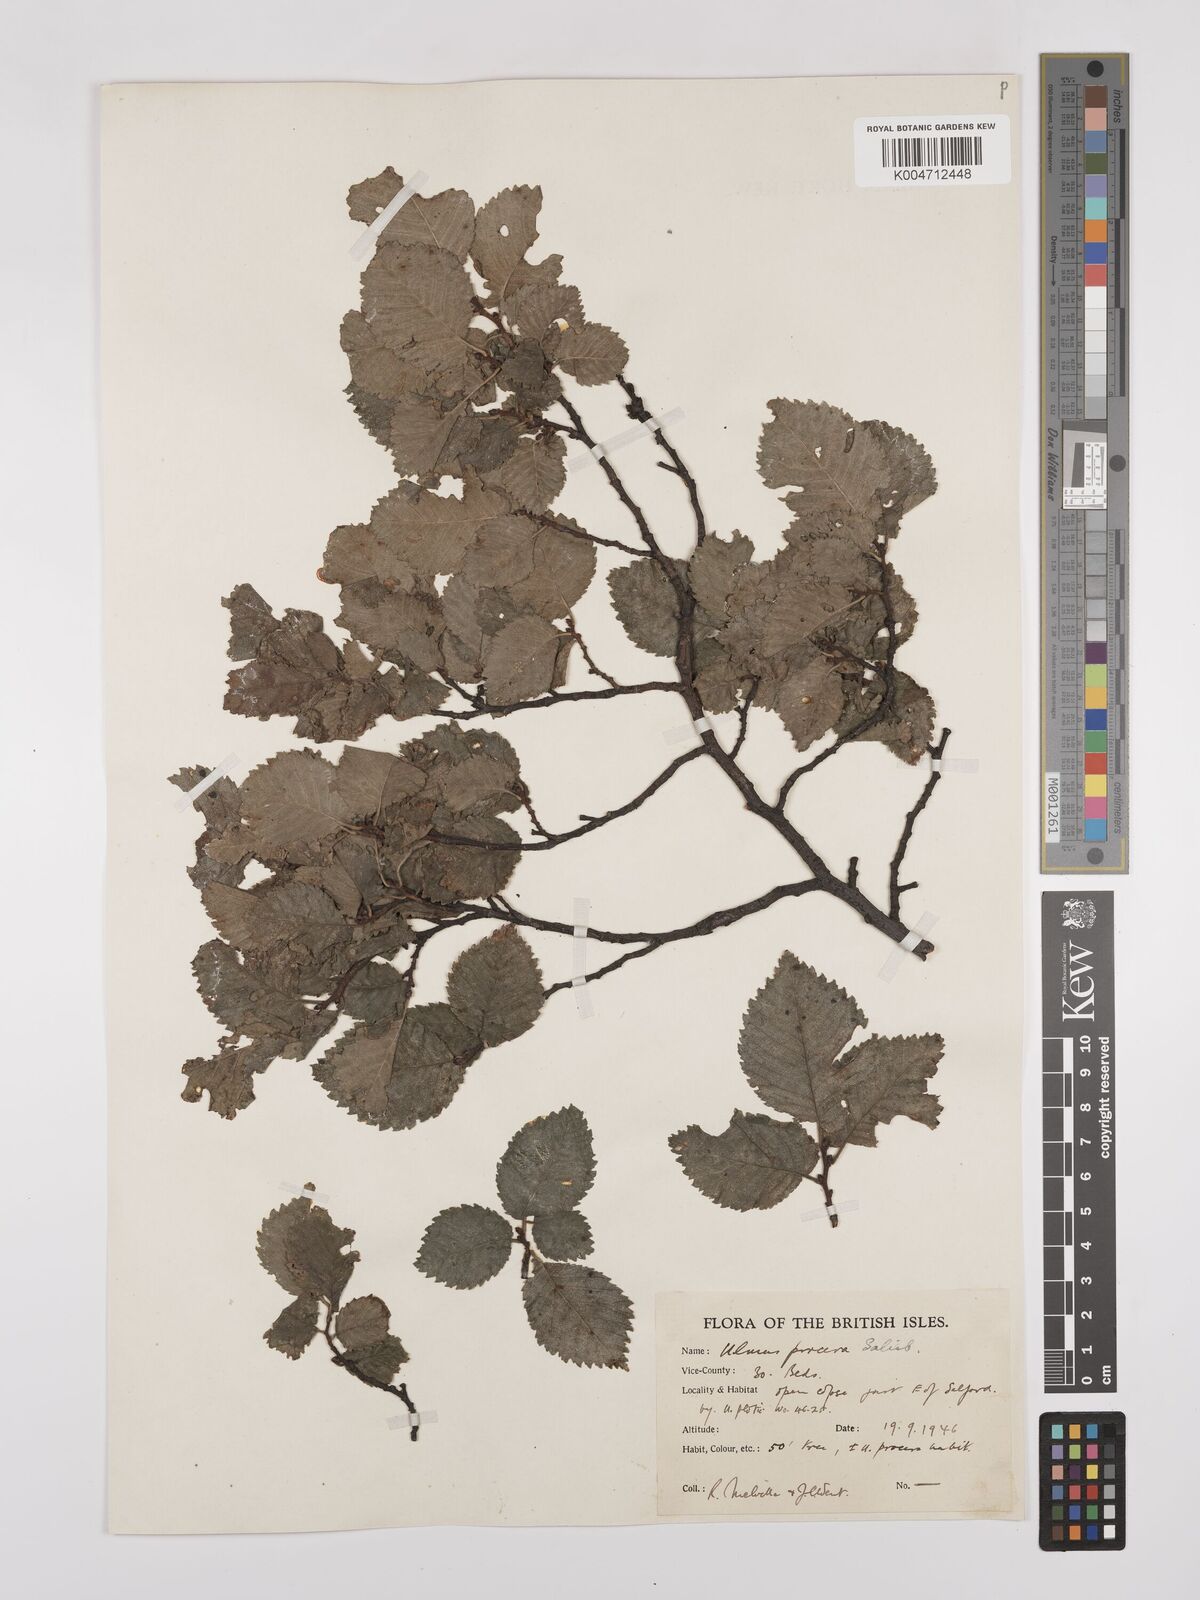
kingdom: Plantae
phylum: Tracheophyta
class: Magnoliopsida
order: Rosales
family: Ulmaceae
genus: Ulmus
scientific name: Ulmus minor
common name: Small-leaved elm
